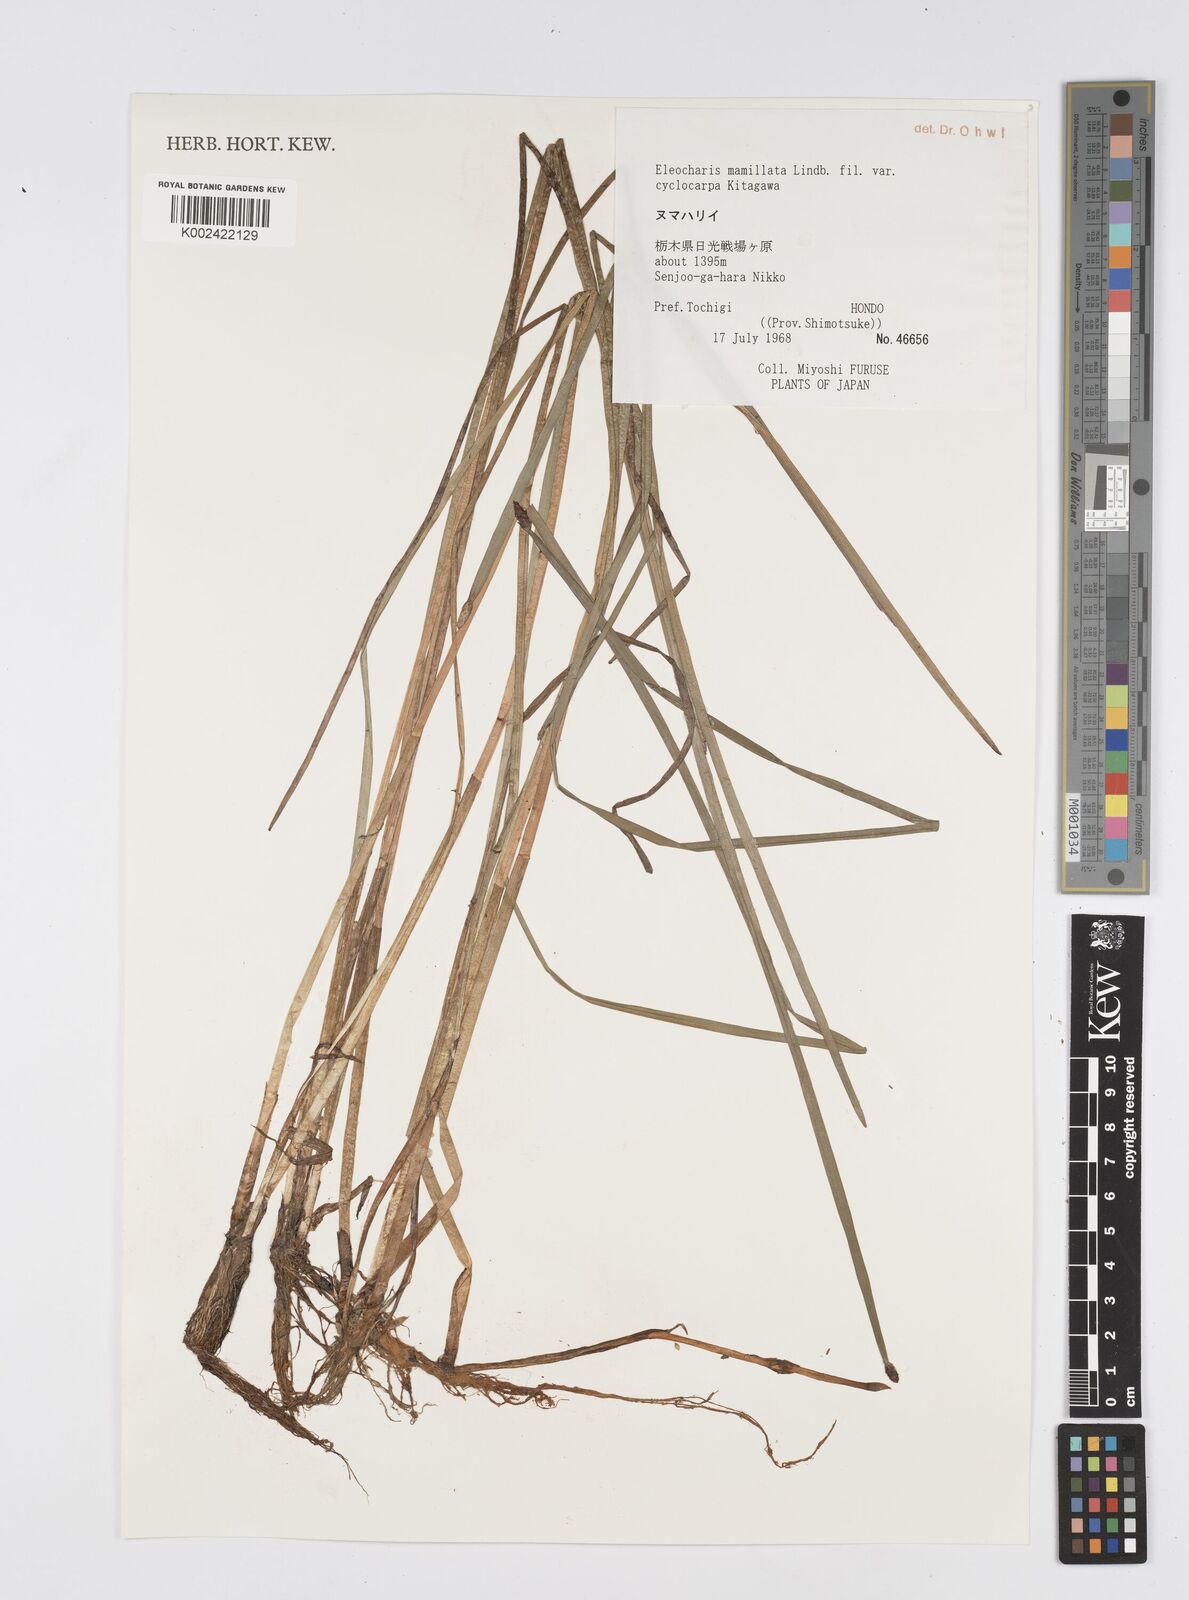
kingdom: Plantae
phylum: Tracheophyta
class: Liliopsida
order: Poales
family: Cyperaceae
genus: Eleocharis
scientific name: Eleocharis mamillata
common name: Northern spike-rush
